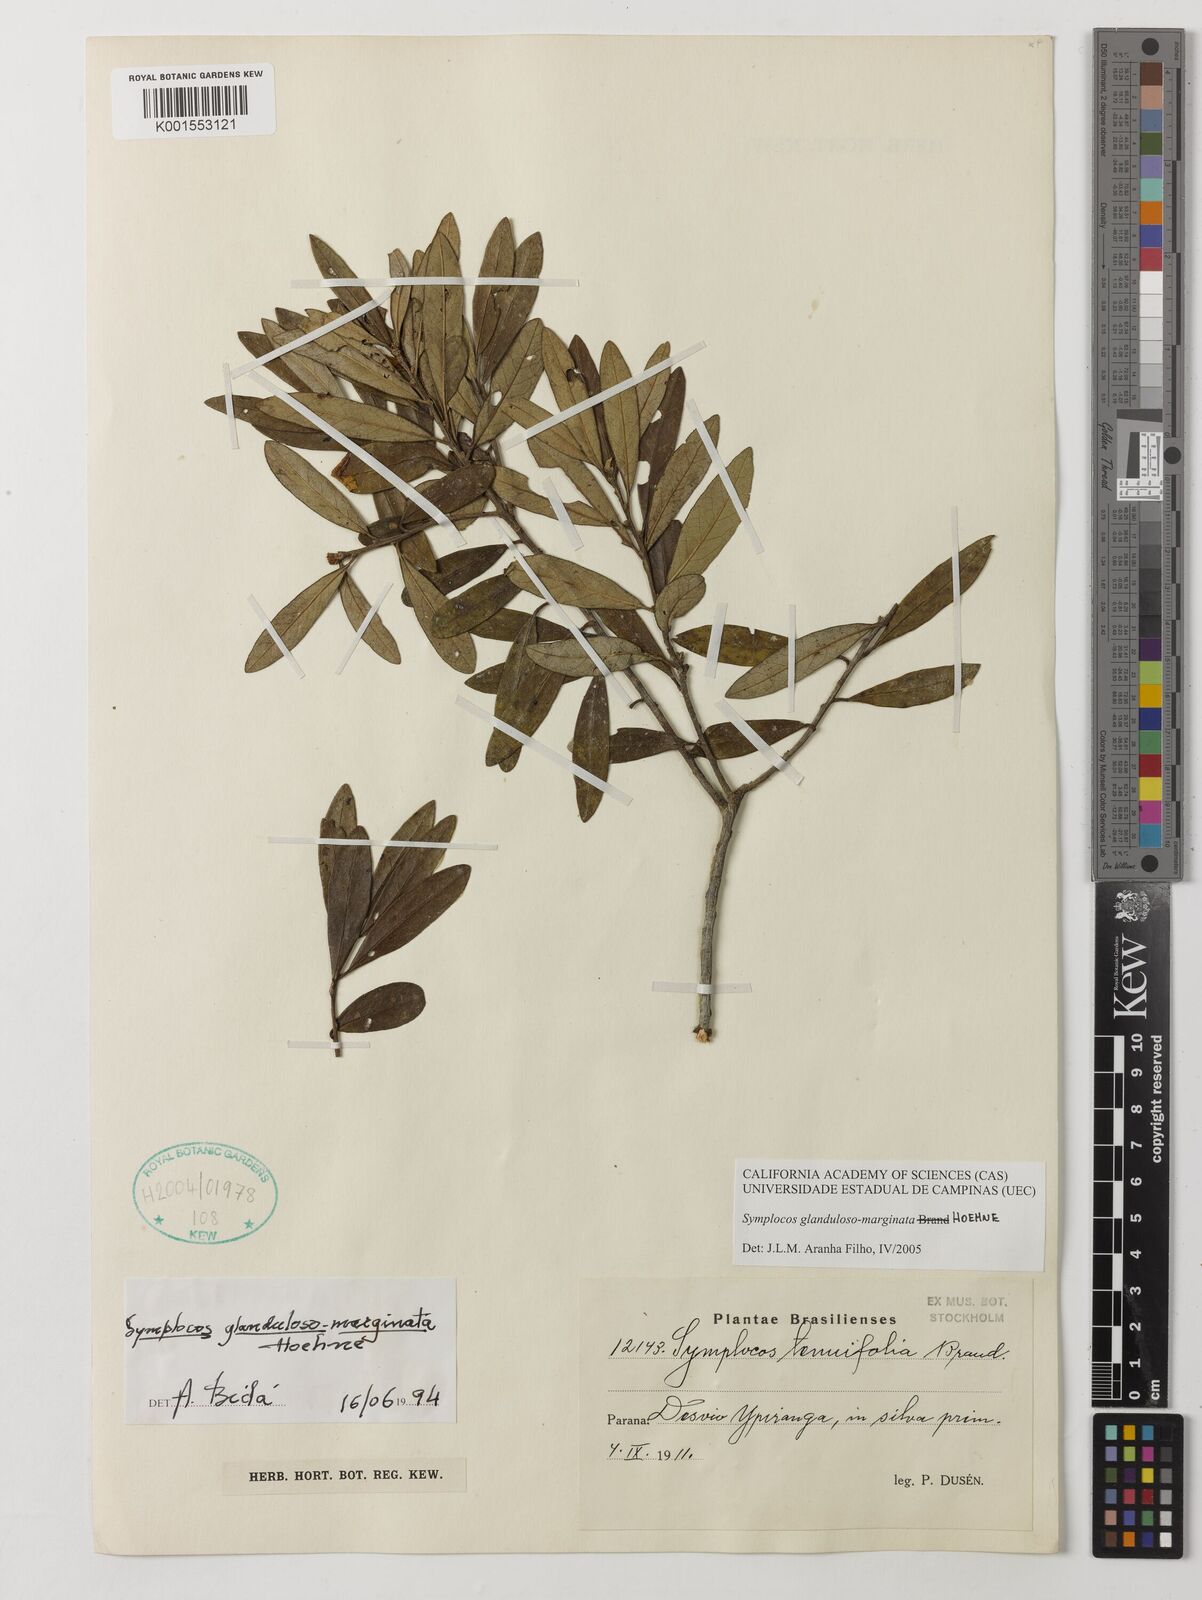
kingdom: Plantae
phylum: Tracheophyta
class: Magnoliopsida
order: Ericales
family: Symplocaceae
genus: Symplocos
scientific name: Symplocos glandulosomarginata
